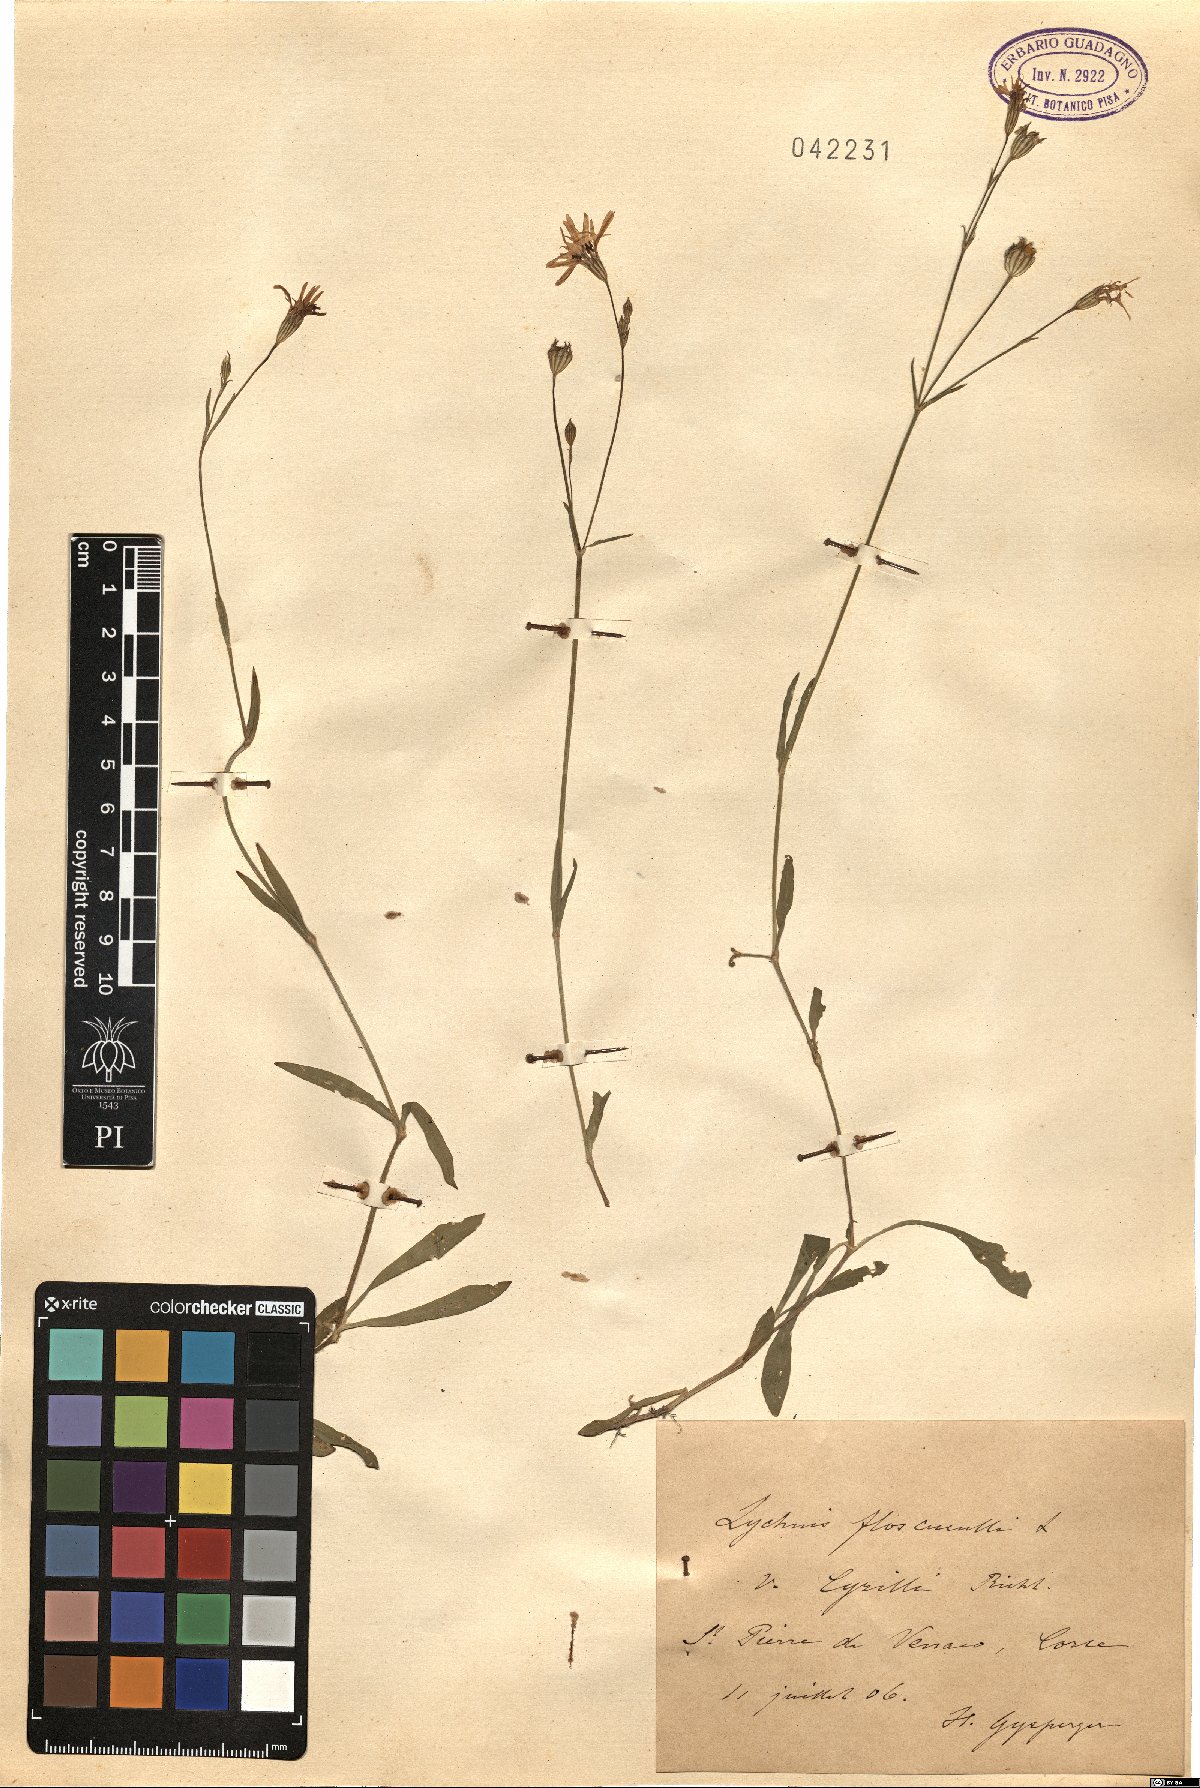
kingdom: Plantae
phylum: Tracheophyta
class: Magnoliopsida
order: Caryophyllales
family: Caryophyllaceae
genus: Silene
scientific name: Silene flos-cuculi
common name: Ragged-robin
